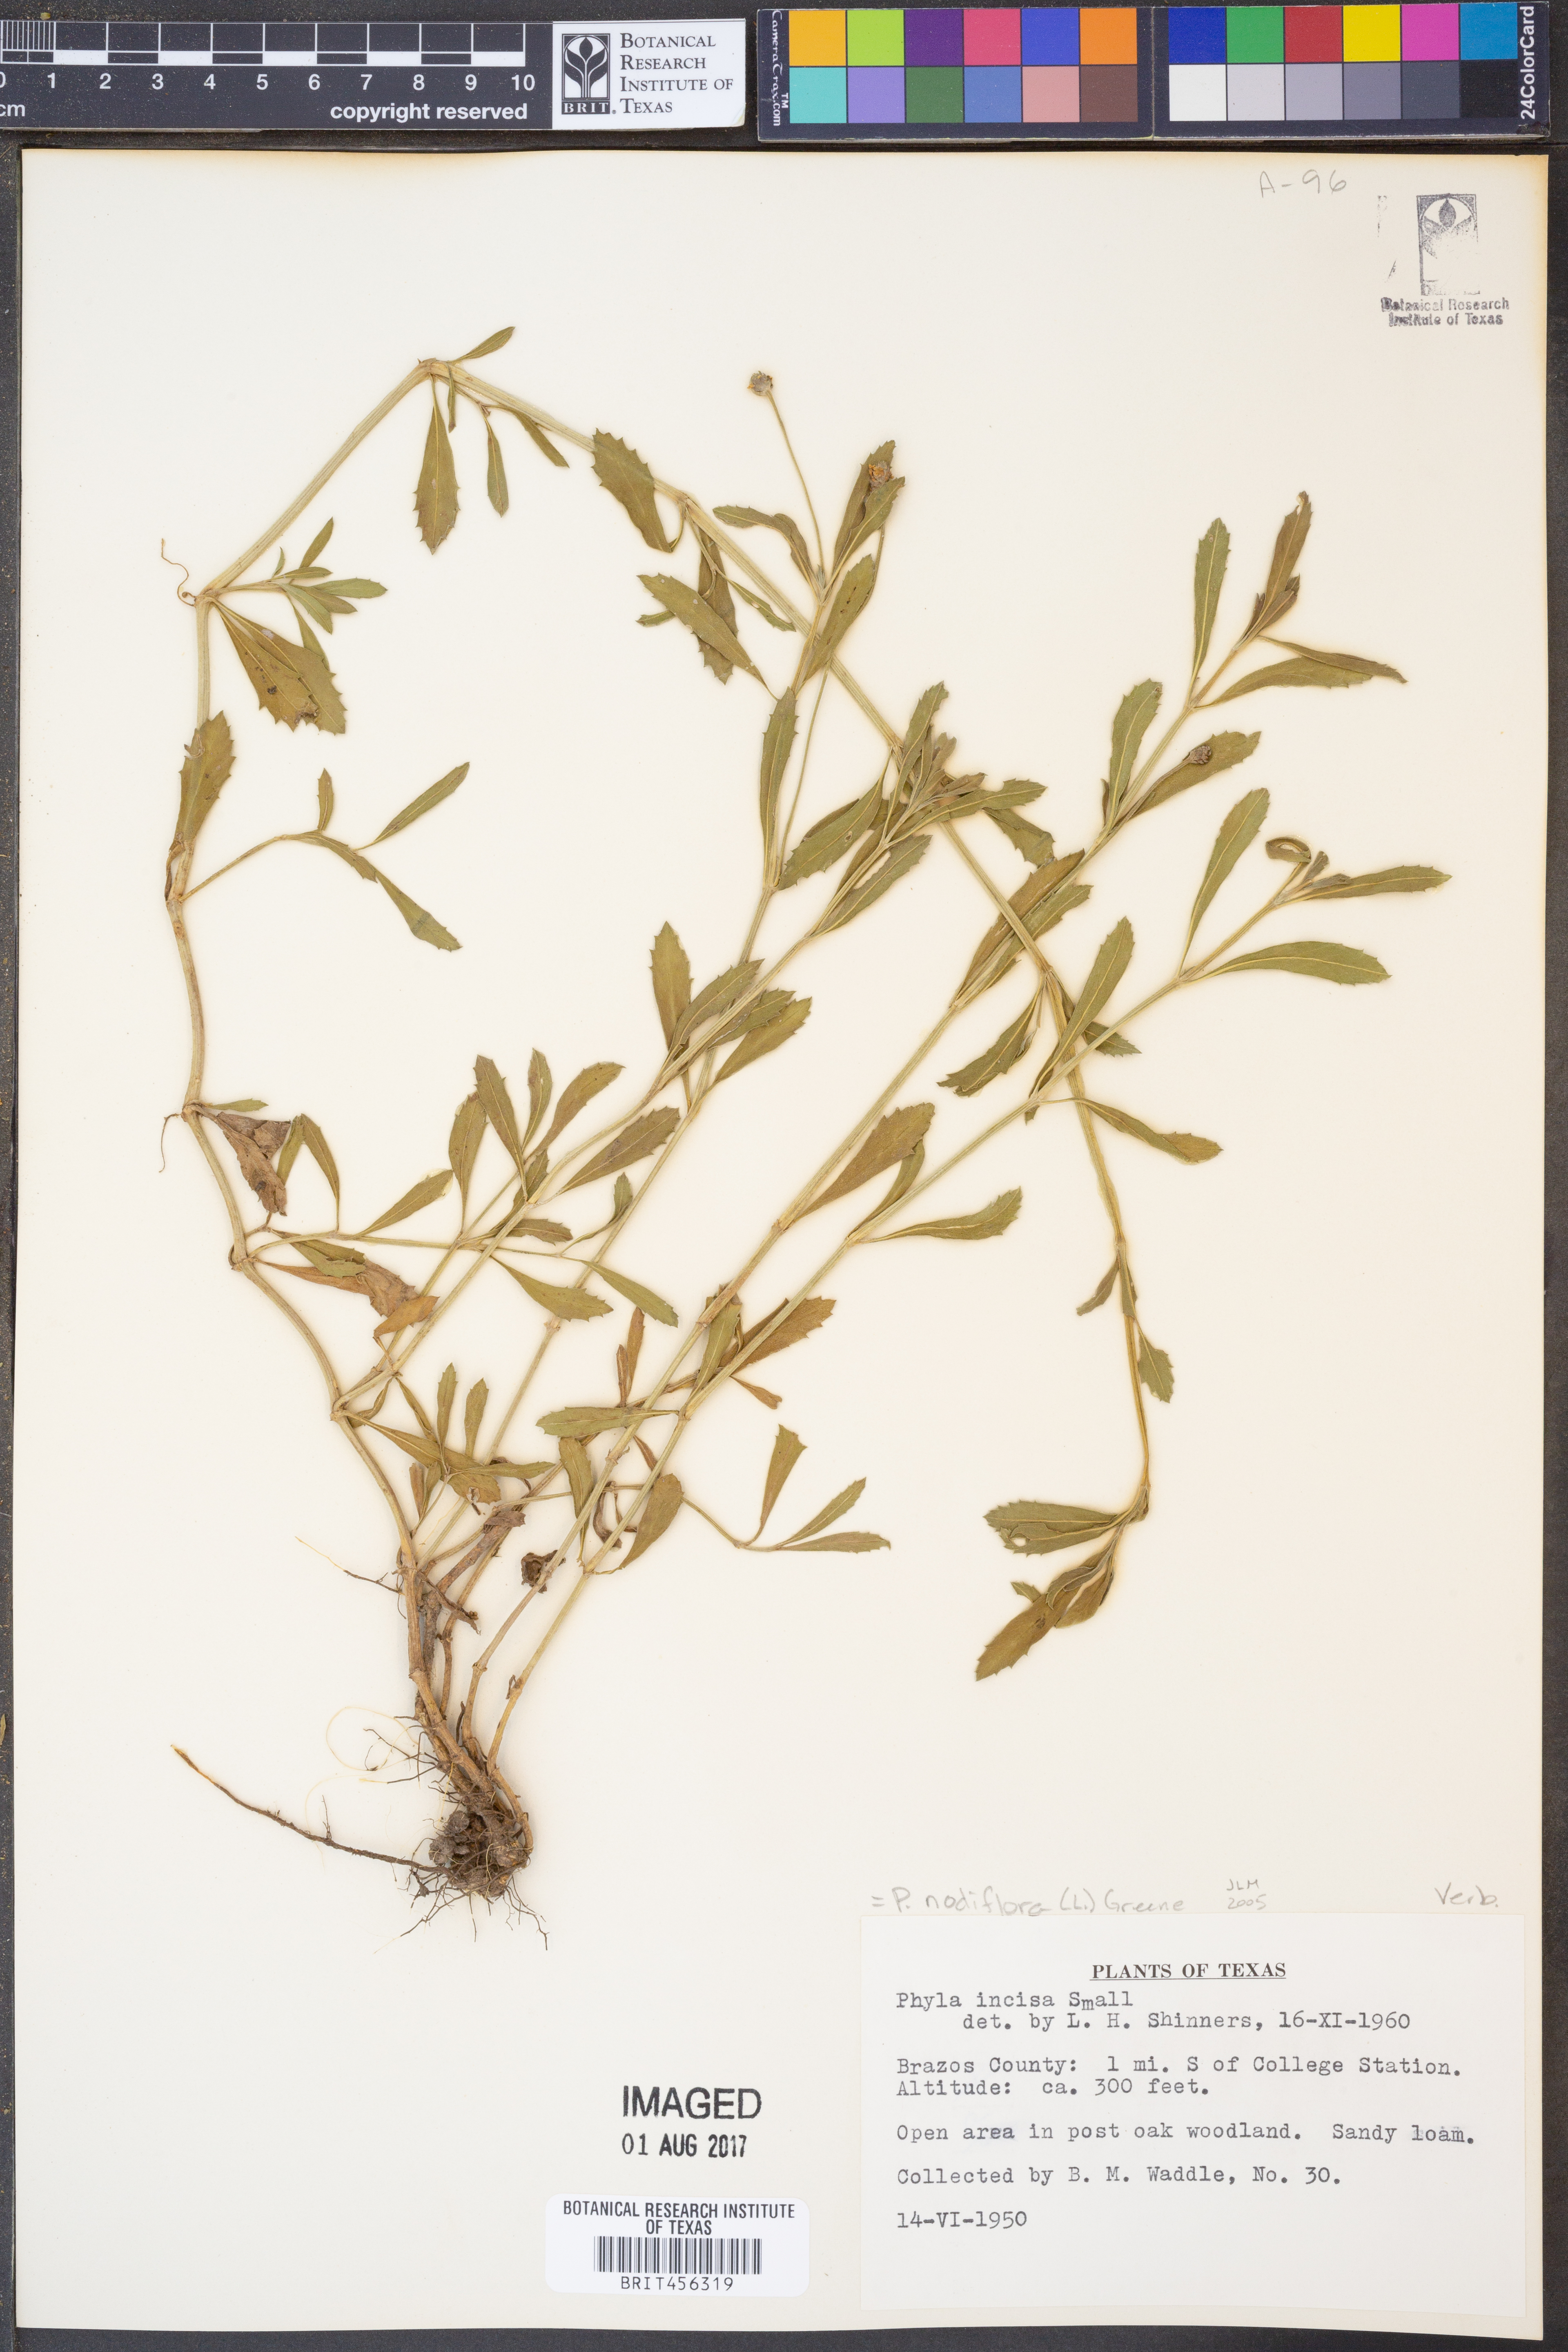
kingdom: Plantae
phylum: Tracheophyta
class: Magnoliopsida
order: Lamiales
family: Verbenaceae
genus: Phyla
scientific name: Phyla nodiflora
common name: Frogfruit
